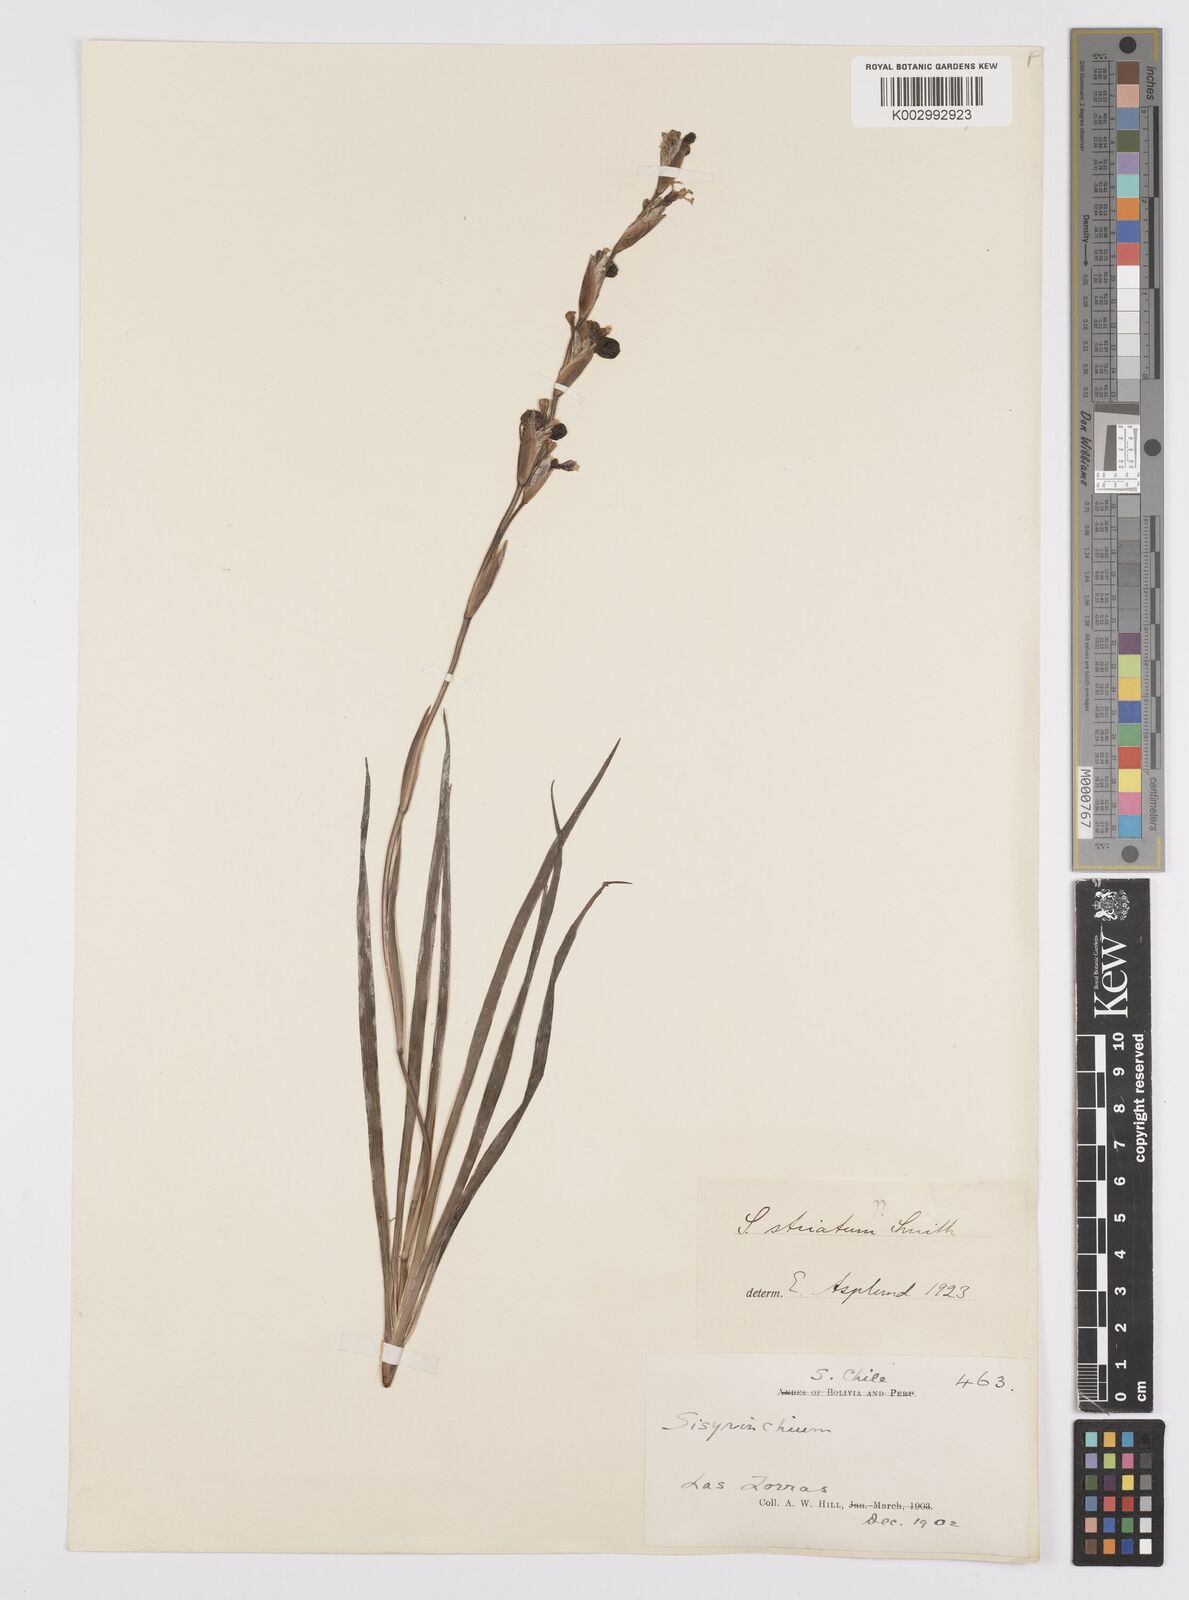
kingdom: Plantae
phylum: Tracheophyta
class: Liliopsida
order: Asparagales
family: Iridaceae
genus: Sisyrinchium
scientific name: Sisyrinchium cuspidatum
